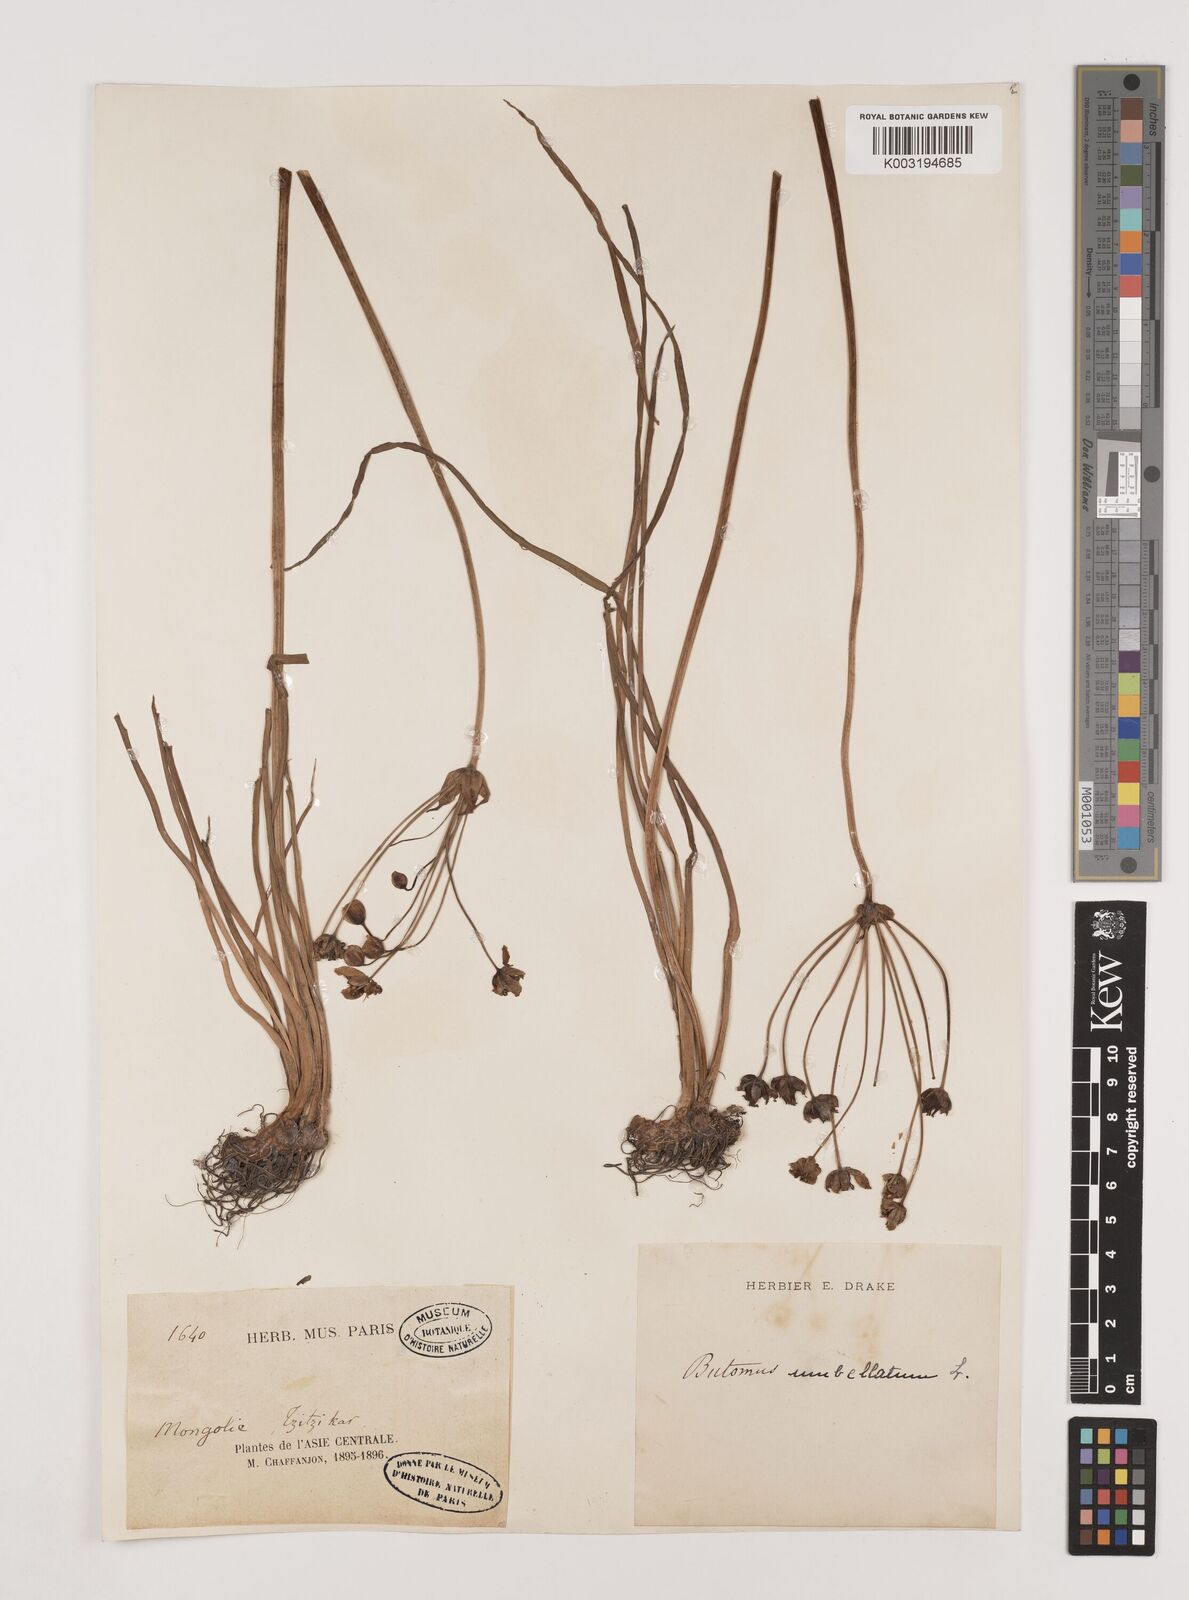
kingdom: Plantae
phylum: Tracheophyta
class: Liliopsida
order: Alismatales
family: Butomaceae
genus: Butomus
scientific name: Butomus umbellatus
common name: Flowering-rush
